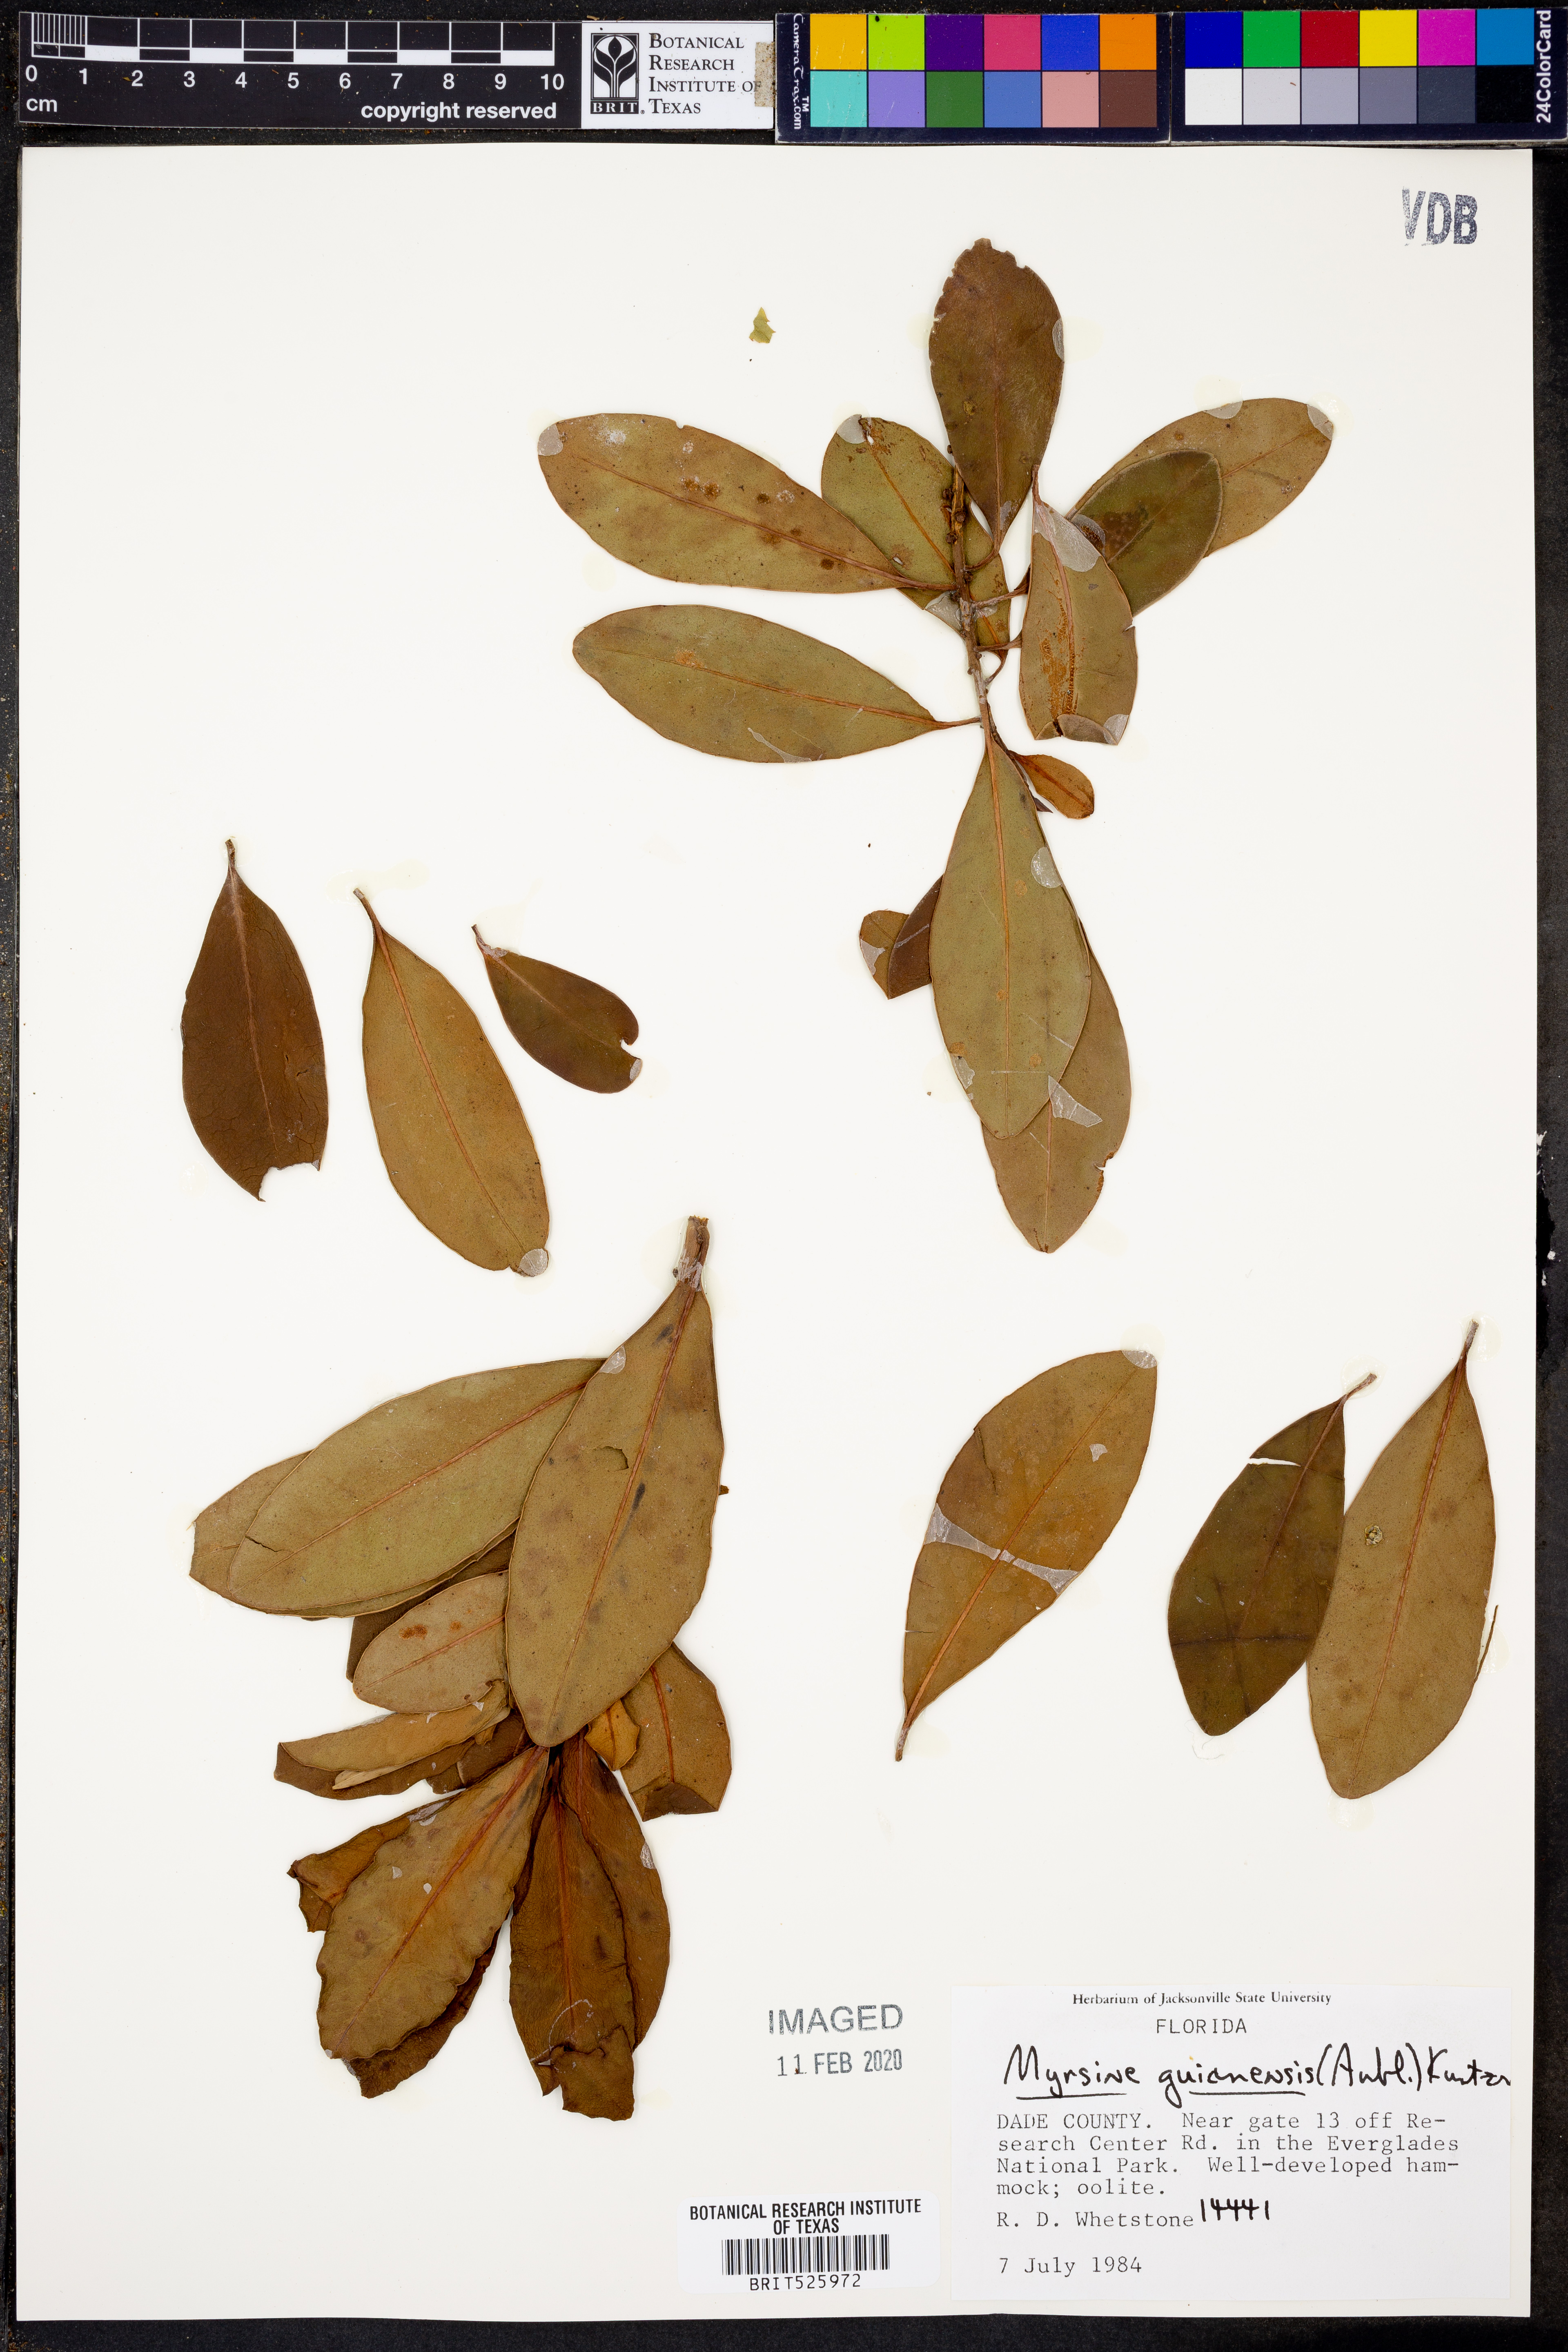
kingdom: Plantae
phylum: Tracheophyta
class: Magnoliopsida
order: Ericales
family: Primulaceae
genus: Myrsine
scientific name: Myrsine guianensis
